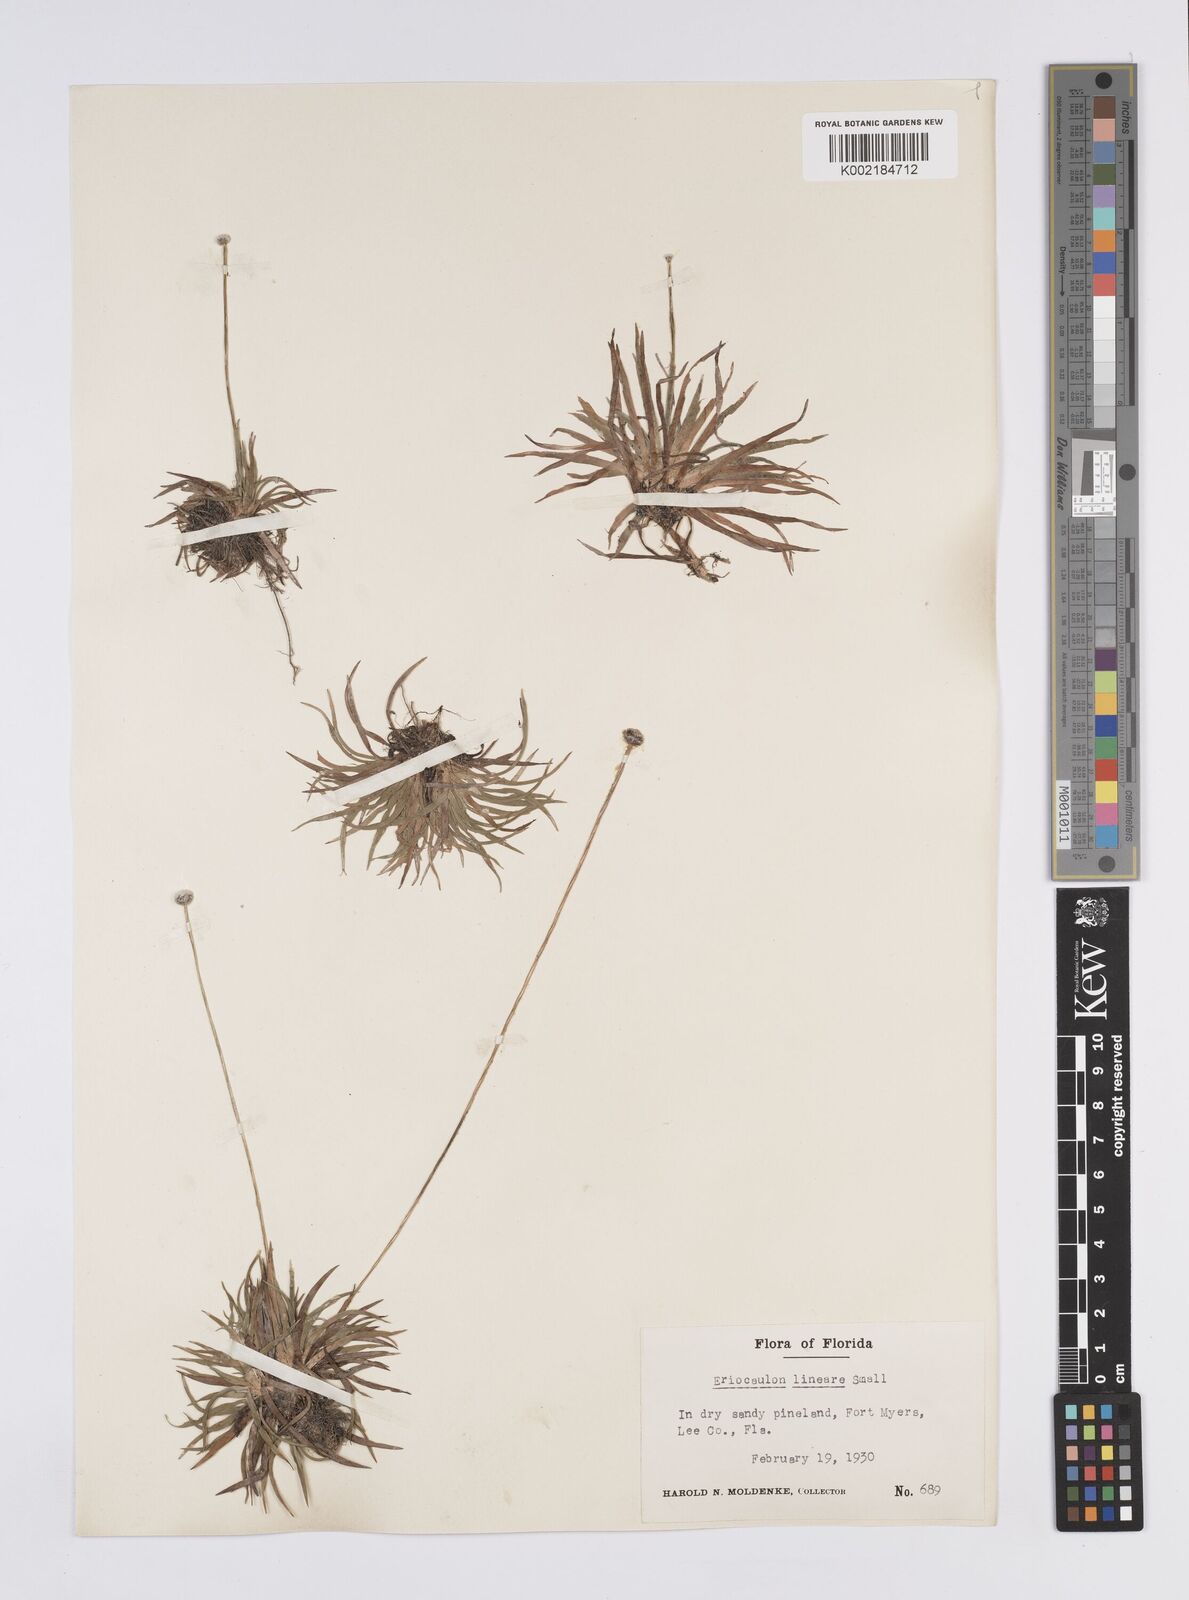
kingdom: Plantae
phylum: Tracheophyta
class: Liliopsida
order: Poales
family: Eriocaulaceae
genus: Eriocaulon
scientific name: Eriocaulon lineare
